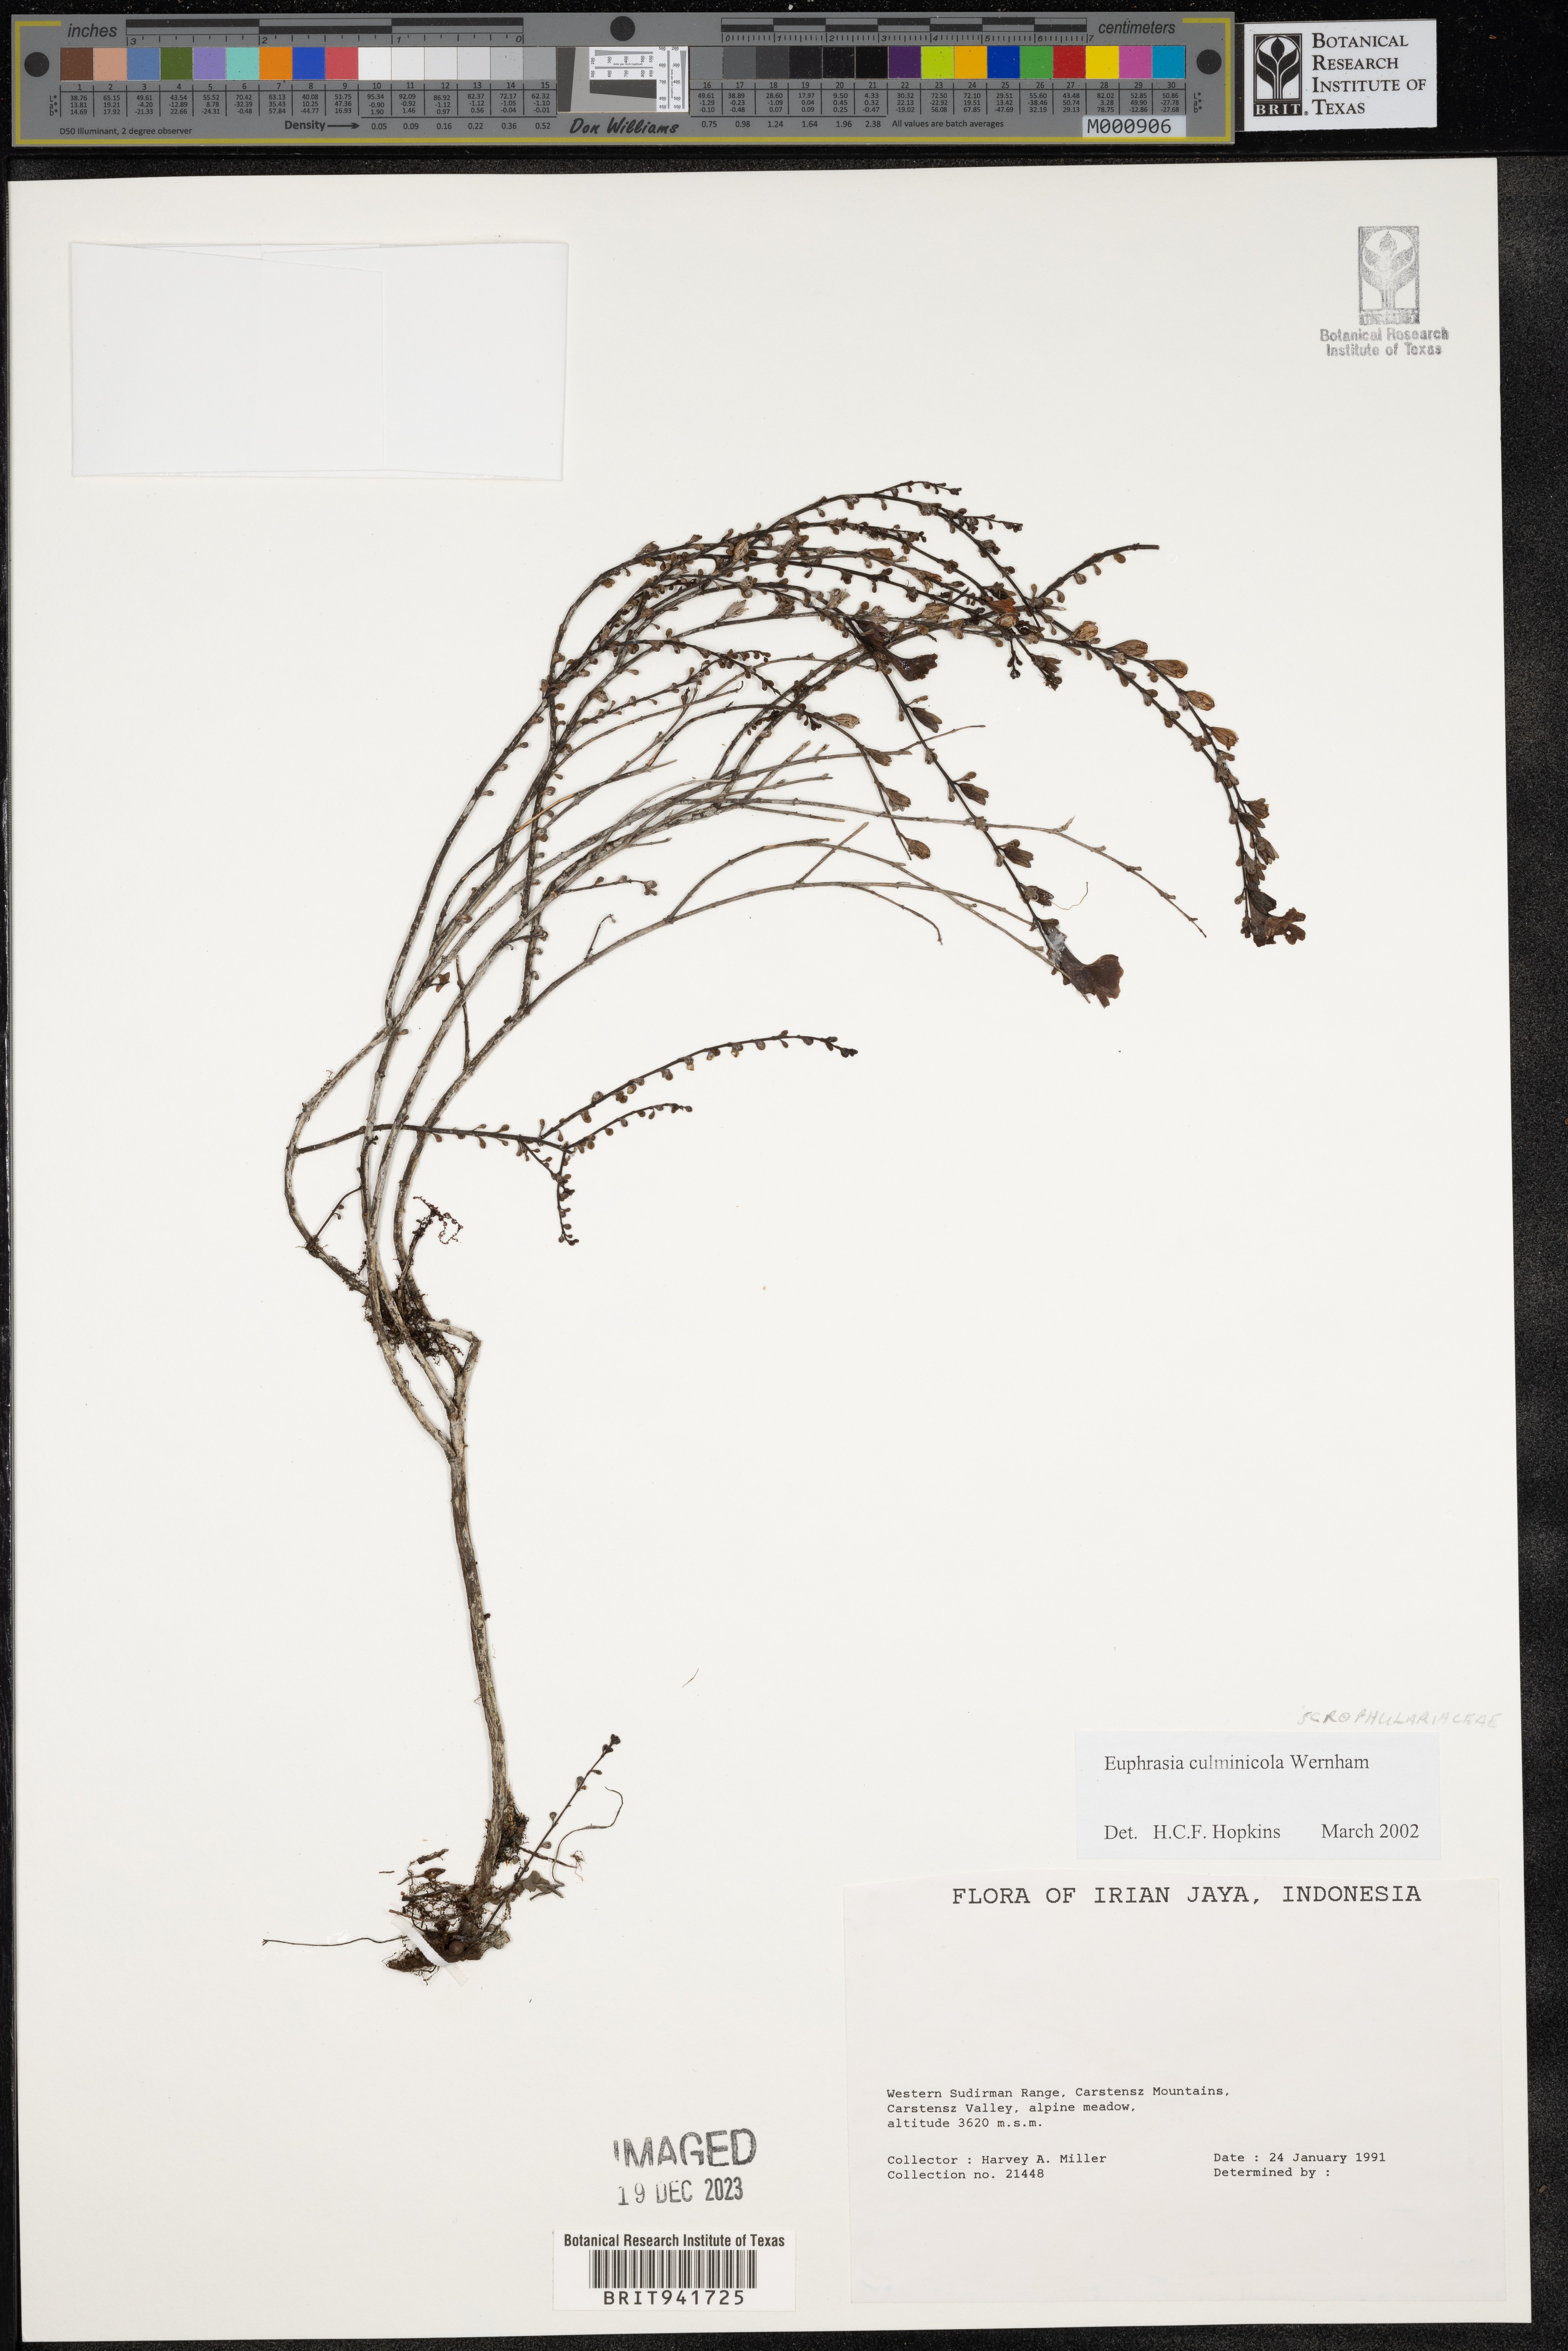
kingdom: Plantae
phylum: Tracheophyta
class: Magnoliopsida
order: Lamiales
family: Orobanchaceae
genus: Euphrasia
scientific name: Euphrasia
